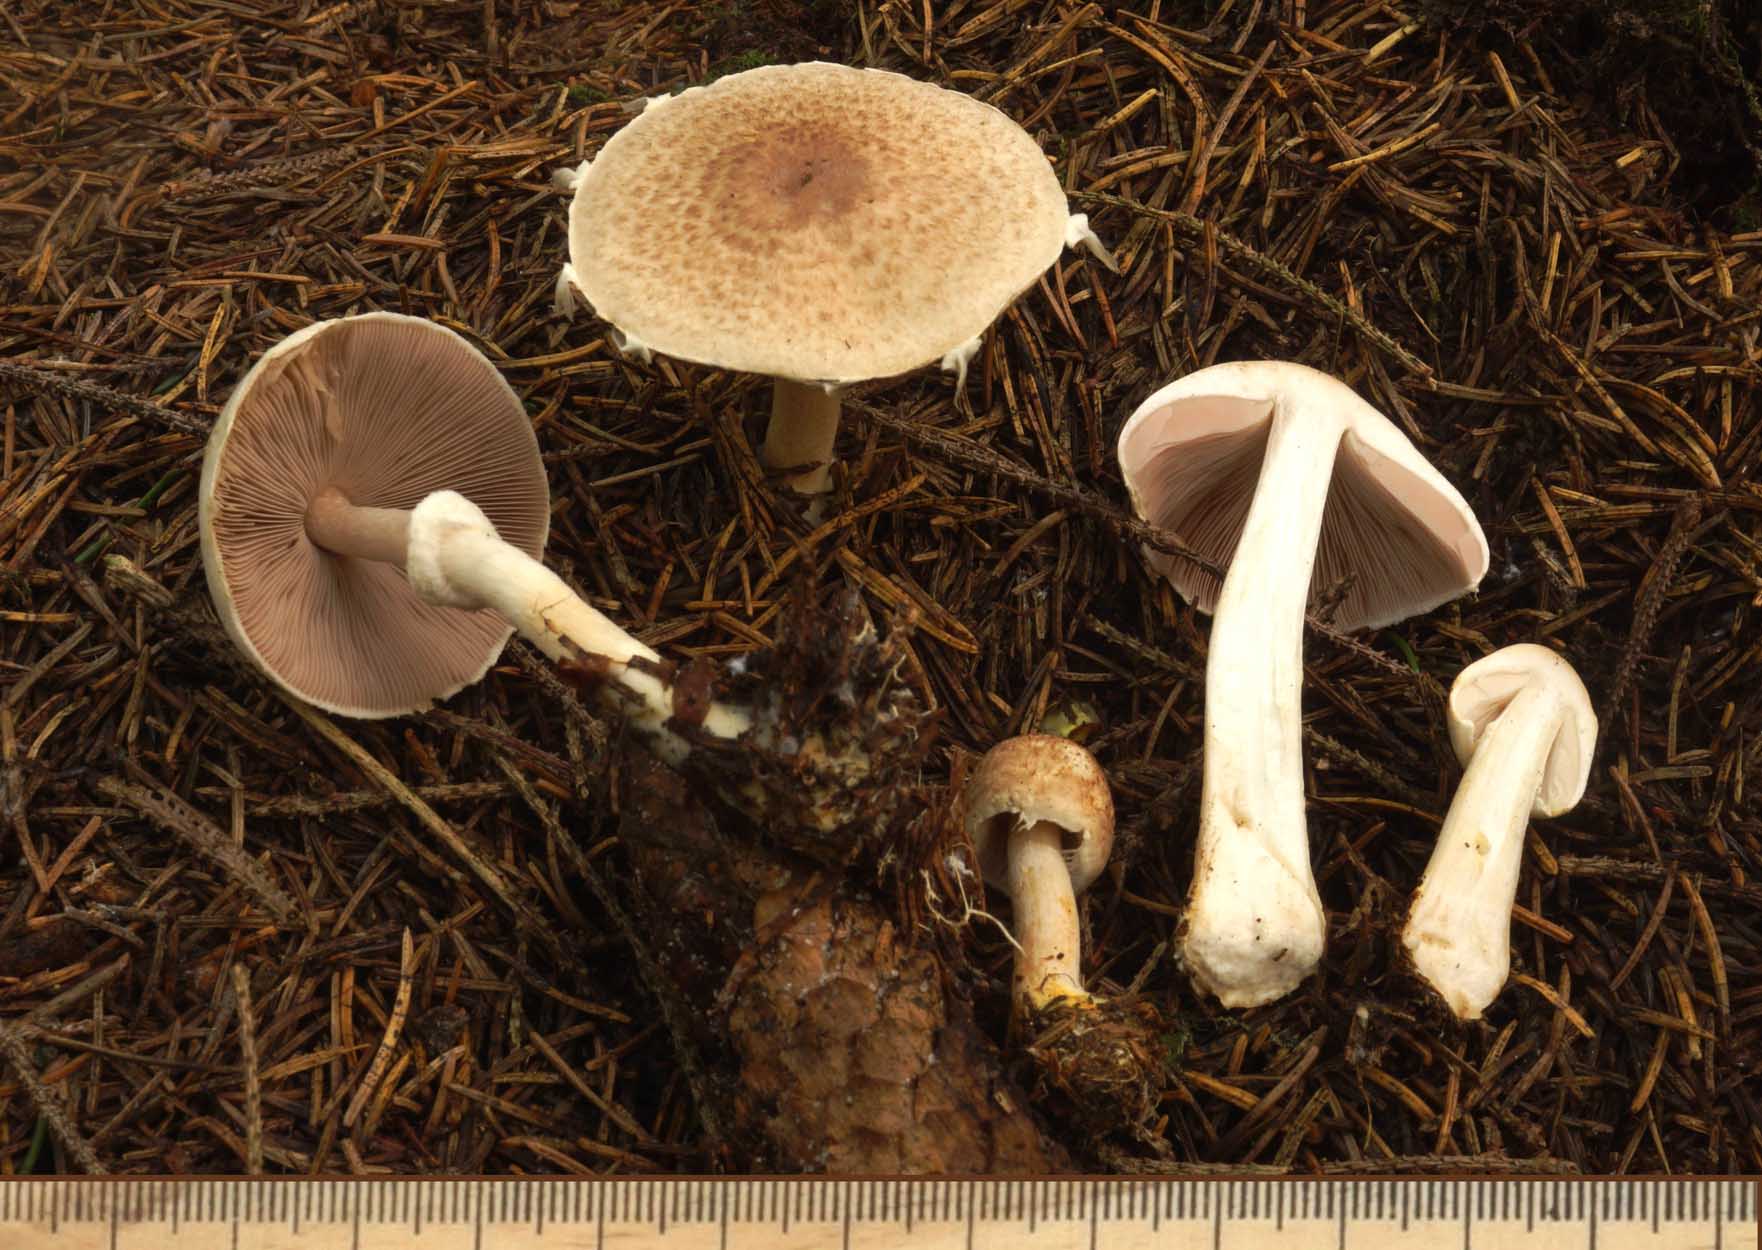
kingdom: Fungi
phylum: Basidiomycota
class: Agaricomycetes
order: Agaricales
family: Agaricaceae
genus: Agaricus
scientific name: Agaricus impudicus
